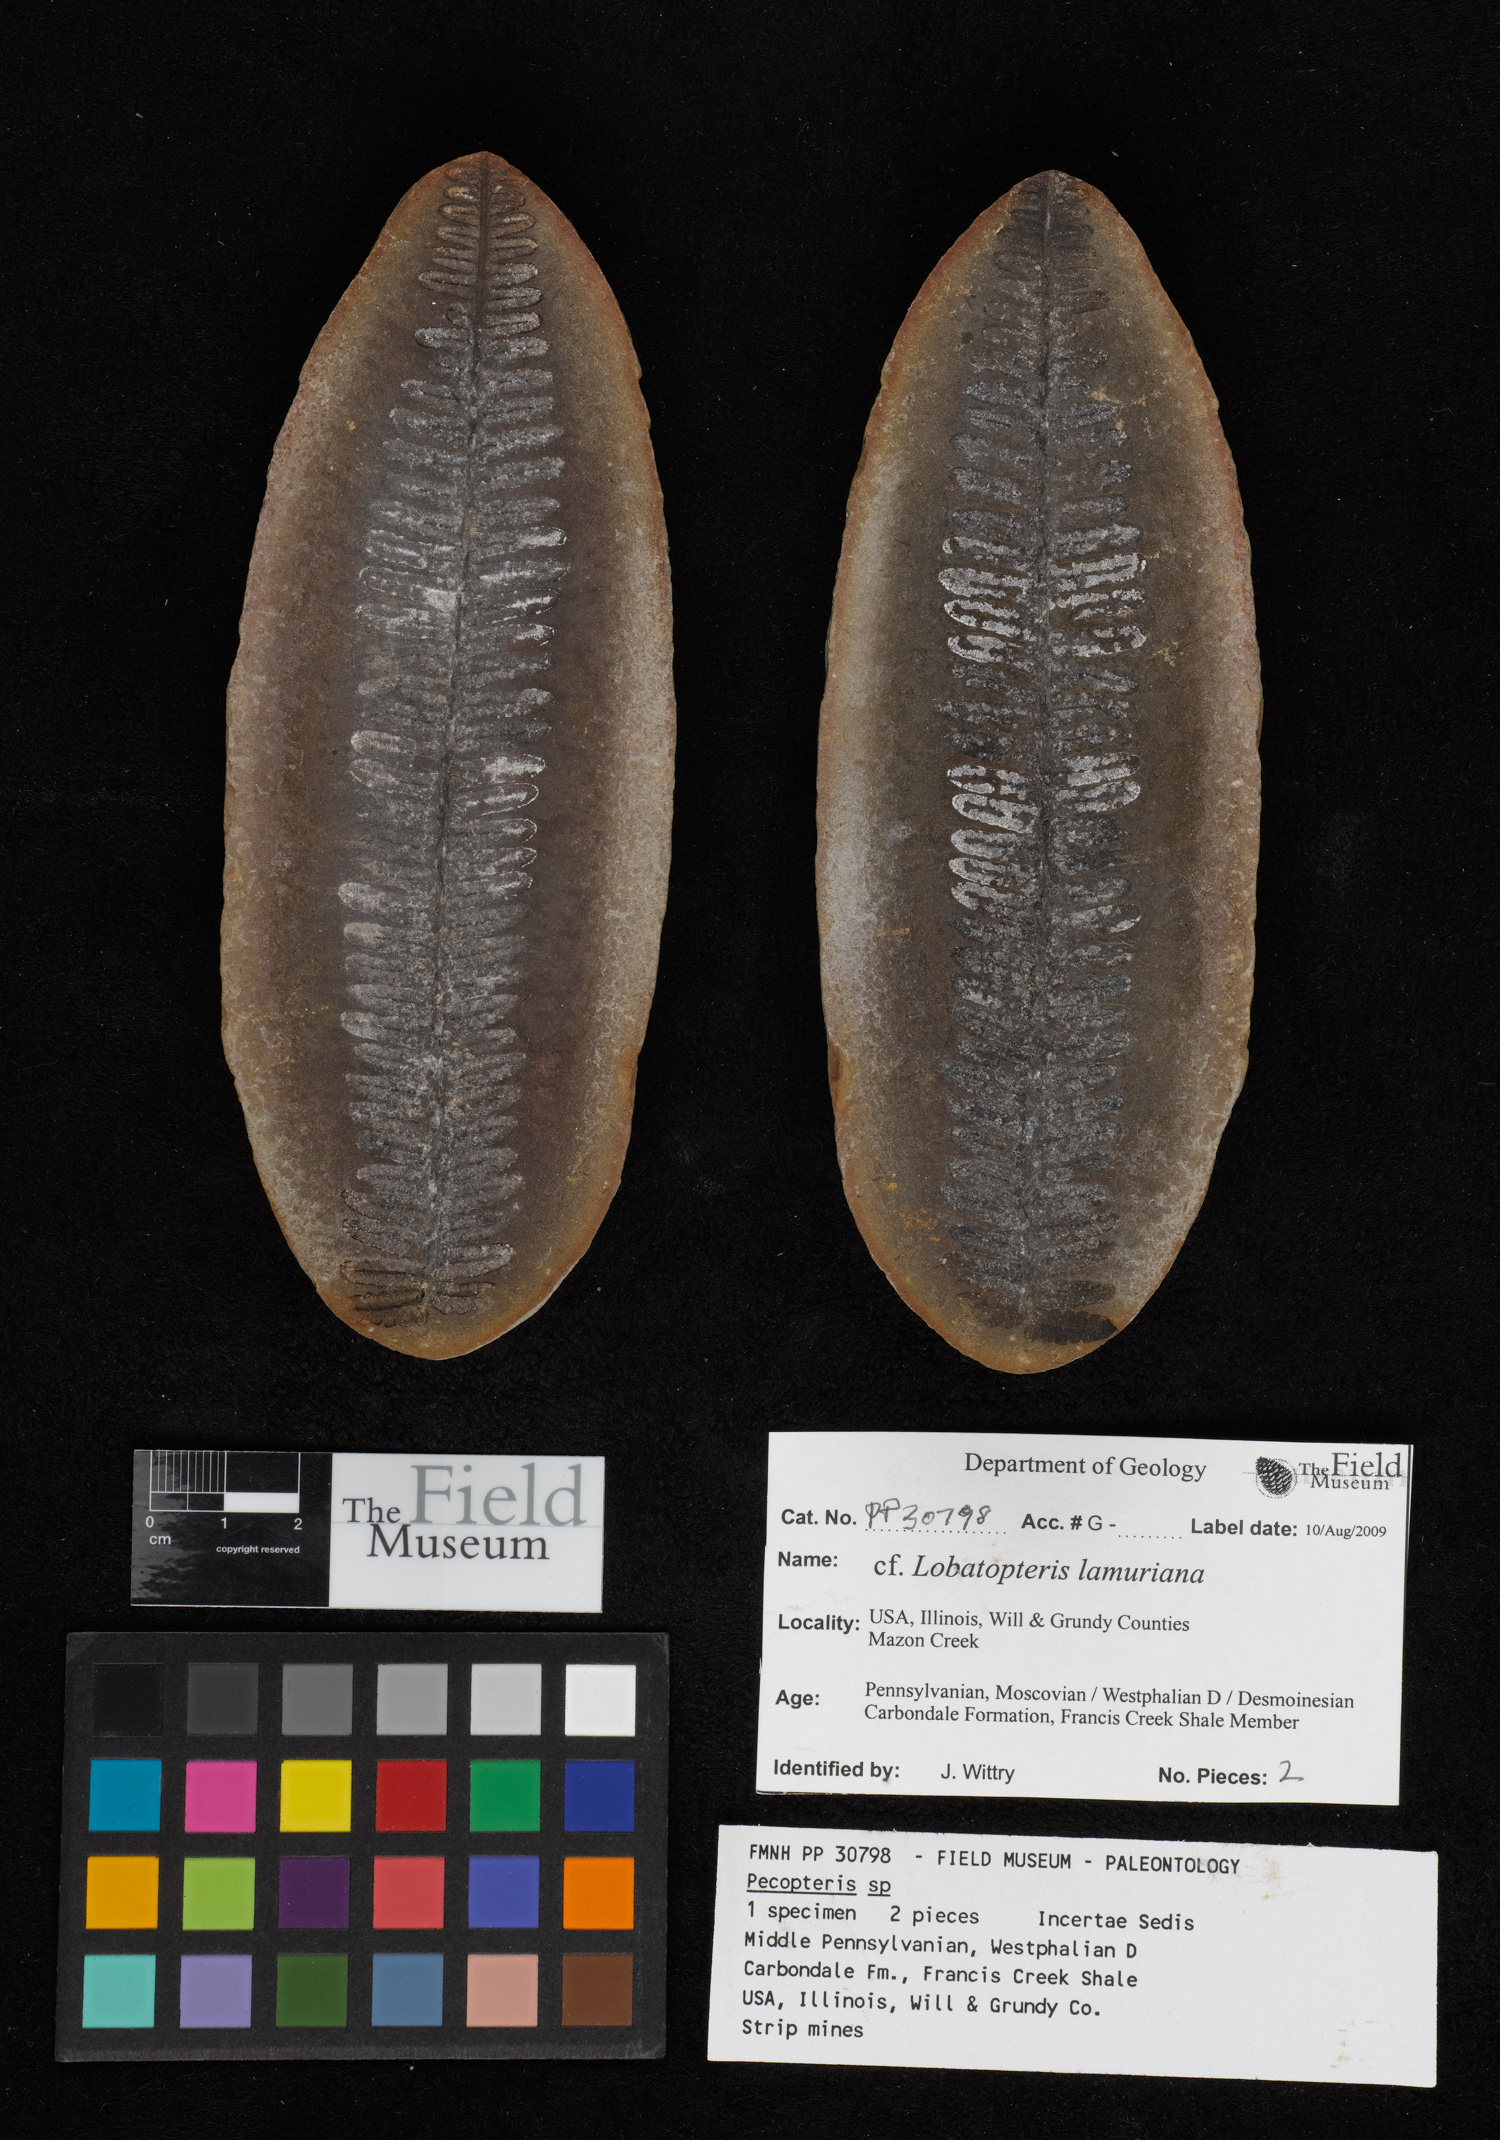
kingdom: Plantae
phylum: Tracheophyta
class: Polypodiopsida
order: Marattiales
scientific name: Marattiales
